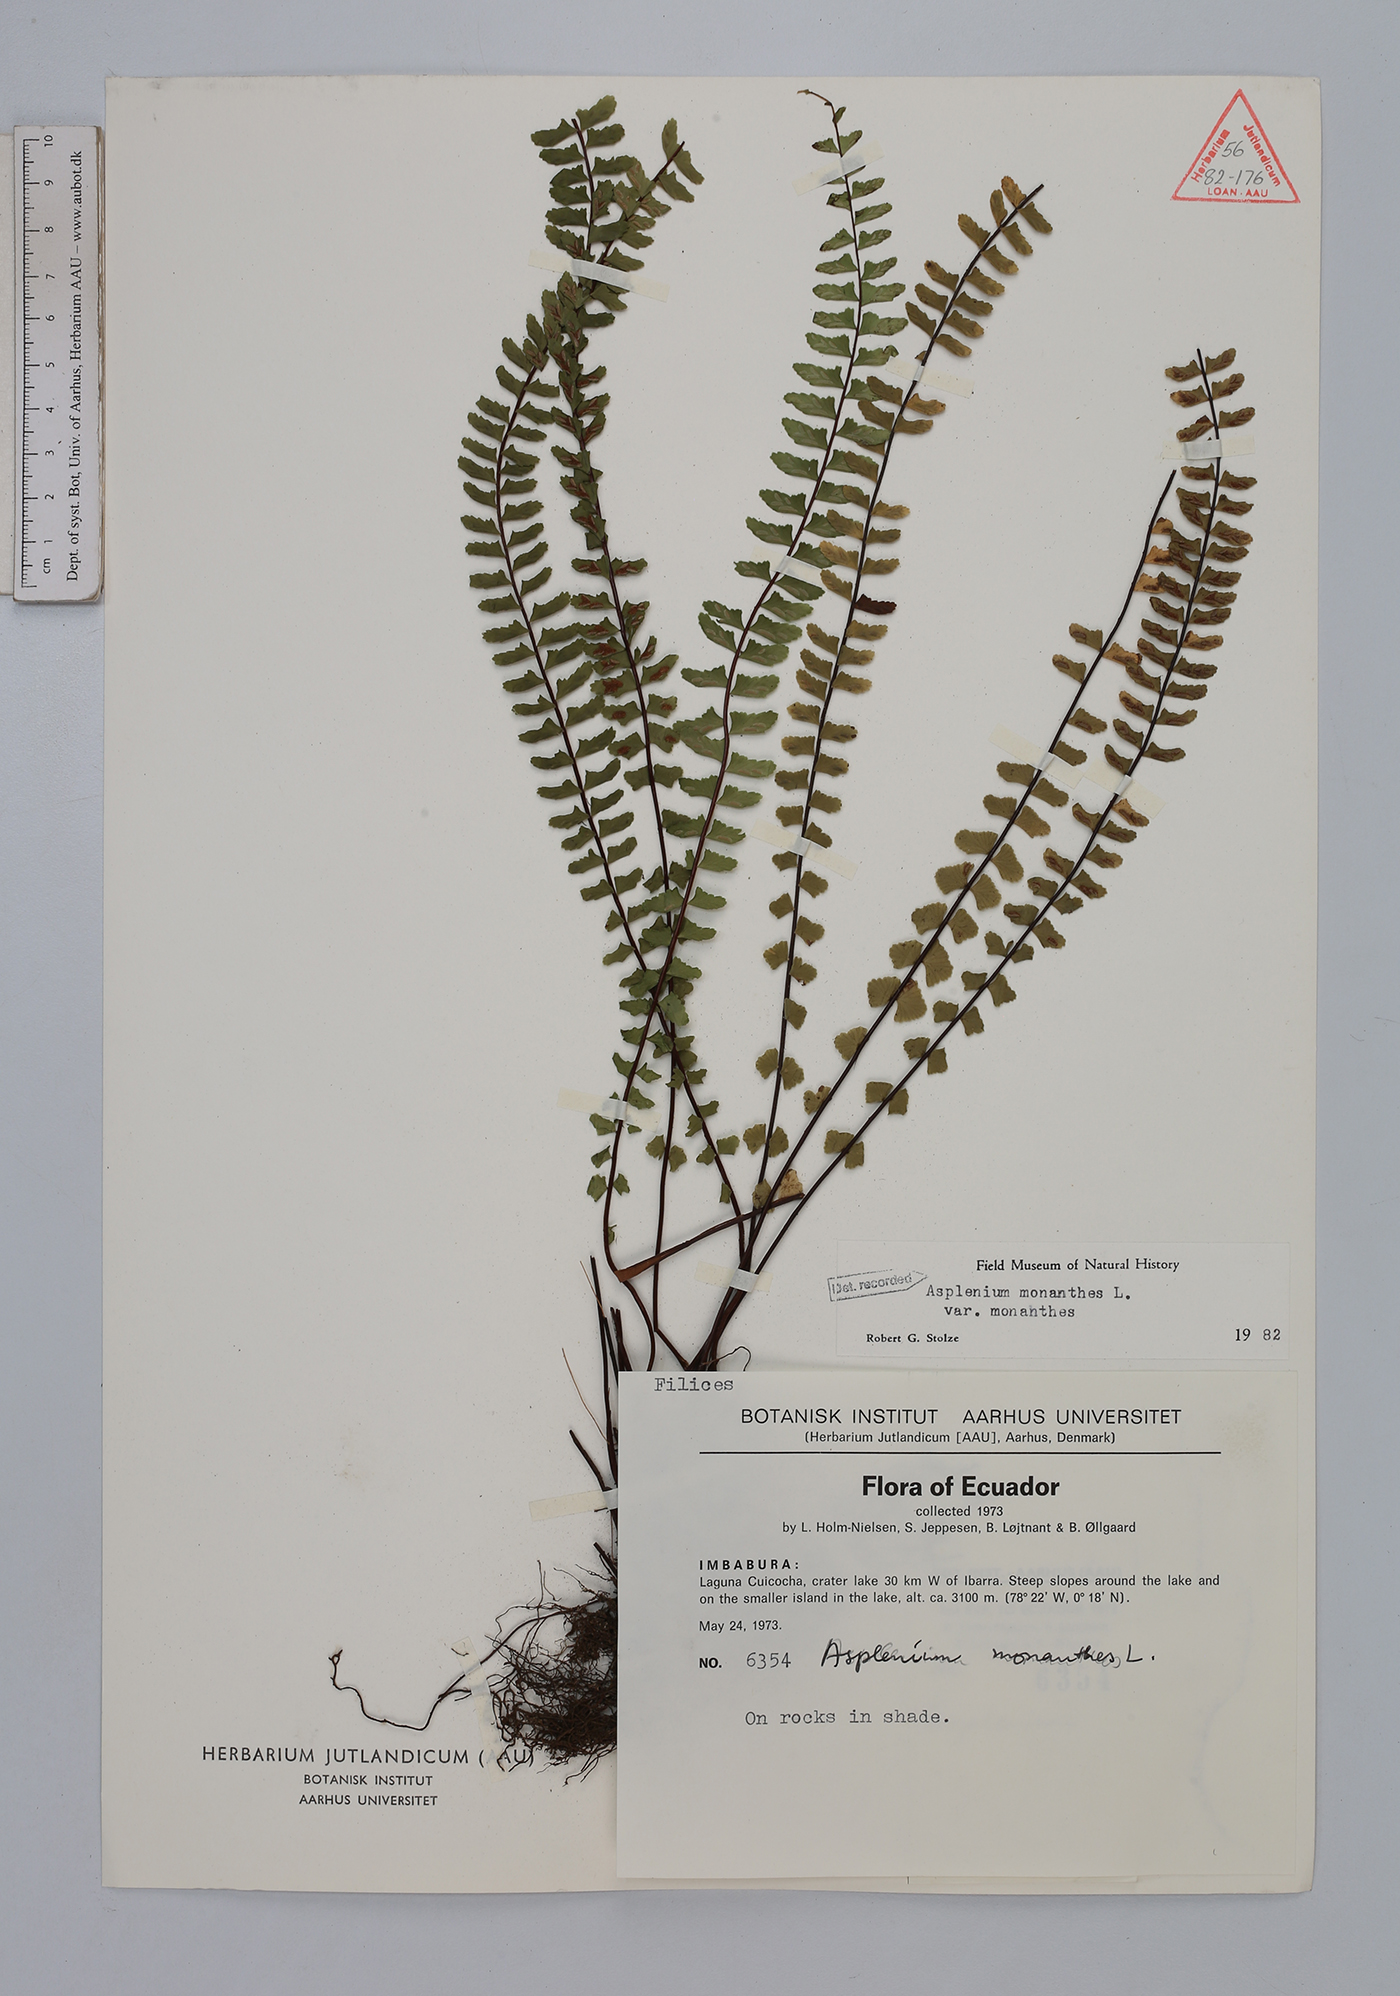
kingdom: Plantae
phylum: Tracheophyta
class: Polypodiopsida
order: Polypodiales
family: Aspleniaceae
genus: Asplenium
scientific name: Asplenium monanthes
